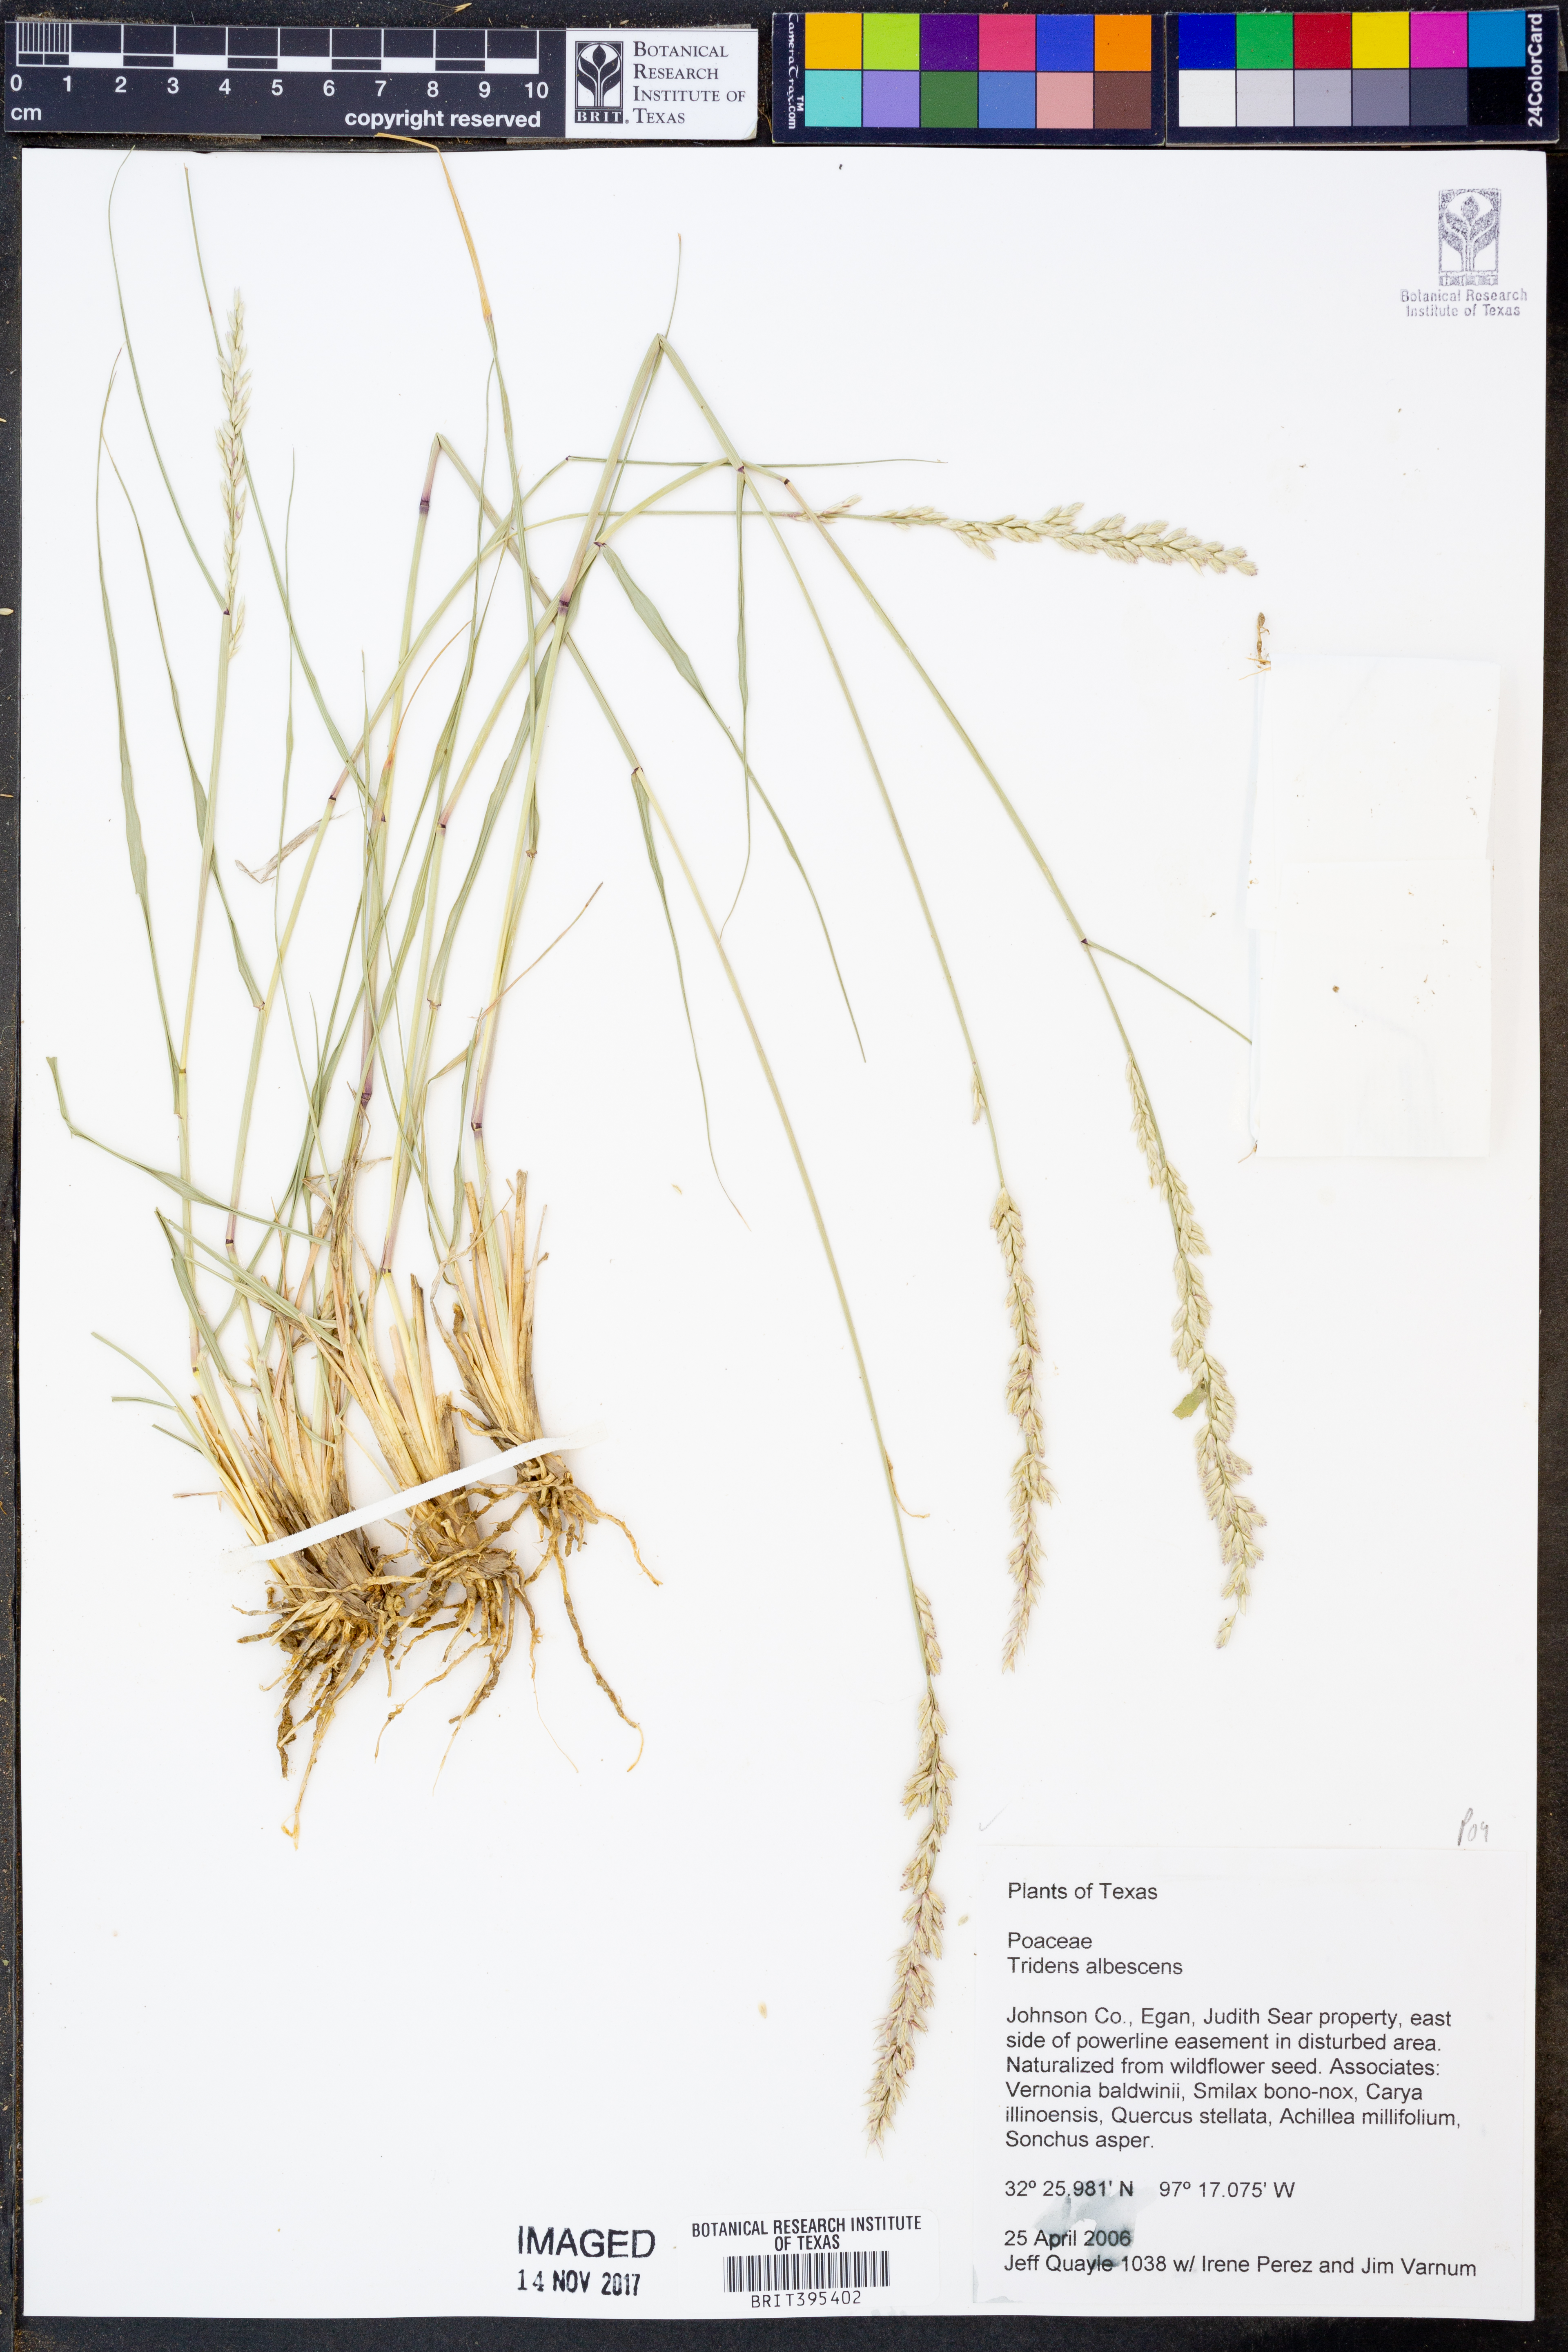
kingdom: Plantae
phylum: Tracheophyta
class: Liliopsida
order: Poales
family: Poaceae
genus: Tridens
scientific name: Tridens albescens
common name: White tridens
